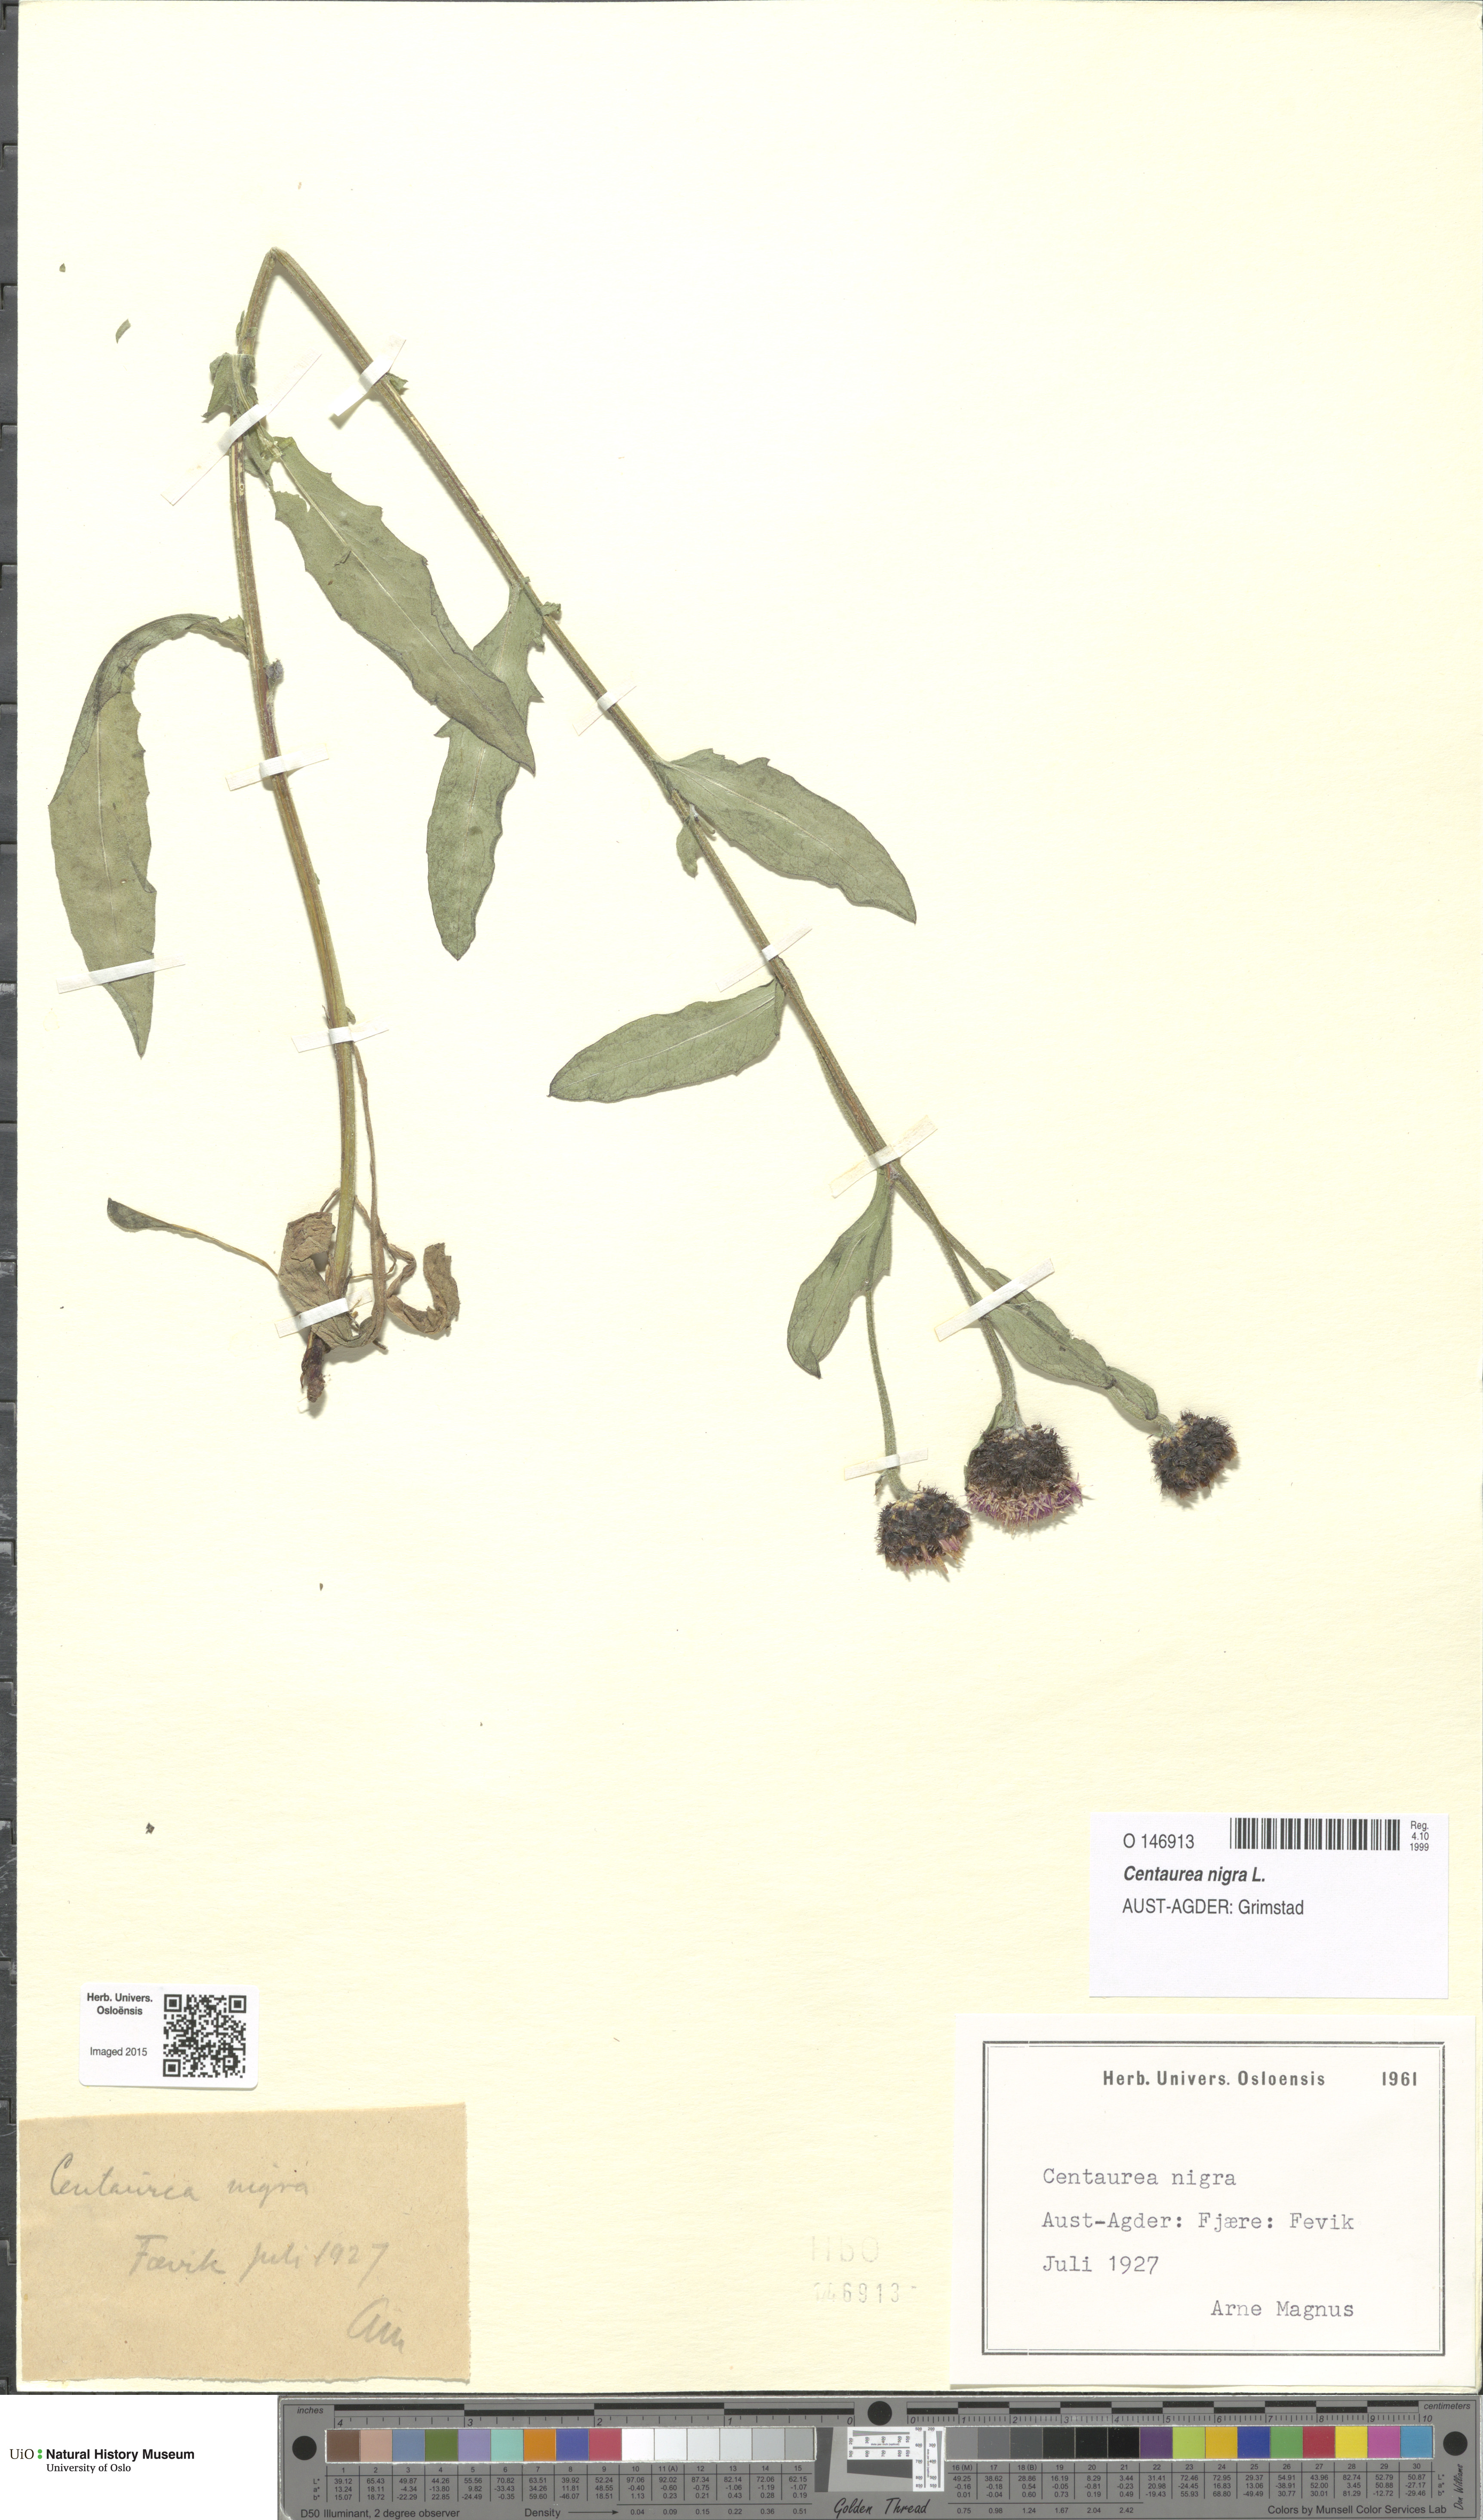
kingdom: Plantae
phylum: Tracheophyta
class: Magnoliopsida
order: Asterales
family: Asteraceae
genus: Centaurea
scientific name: Centaurea nigra
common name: Lesser knapweed
